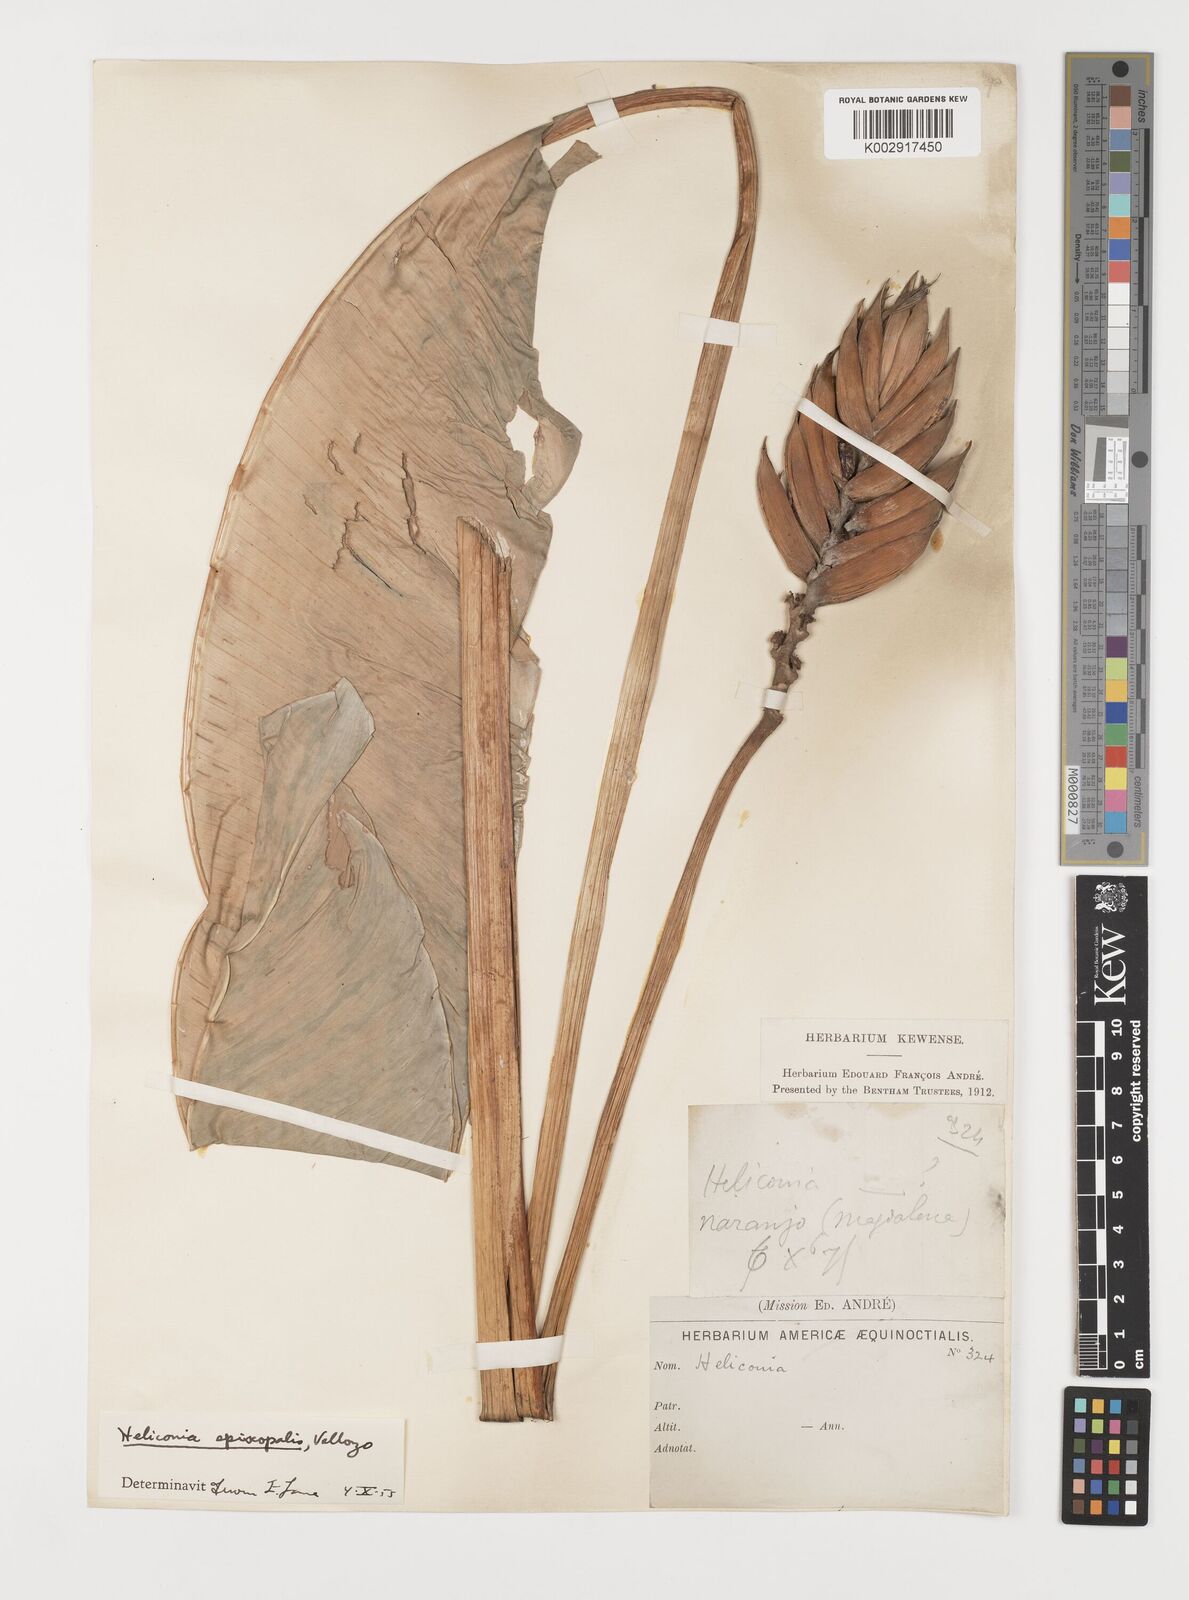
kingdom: Plantae
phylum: Tracheophyta
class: Liliopsida
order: Zingiberales
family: Heliconiaceae
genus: Heliconia
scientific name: Heliconia episcopalis
